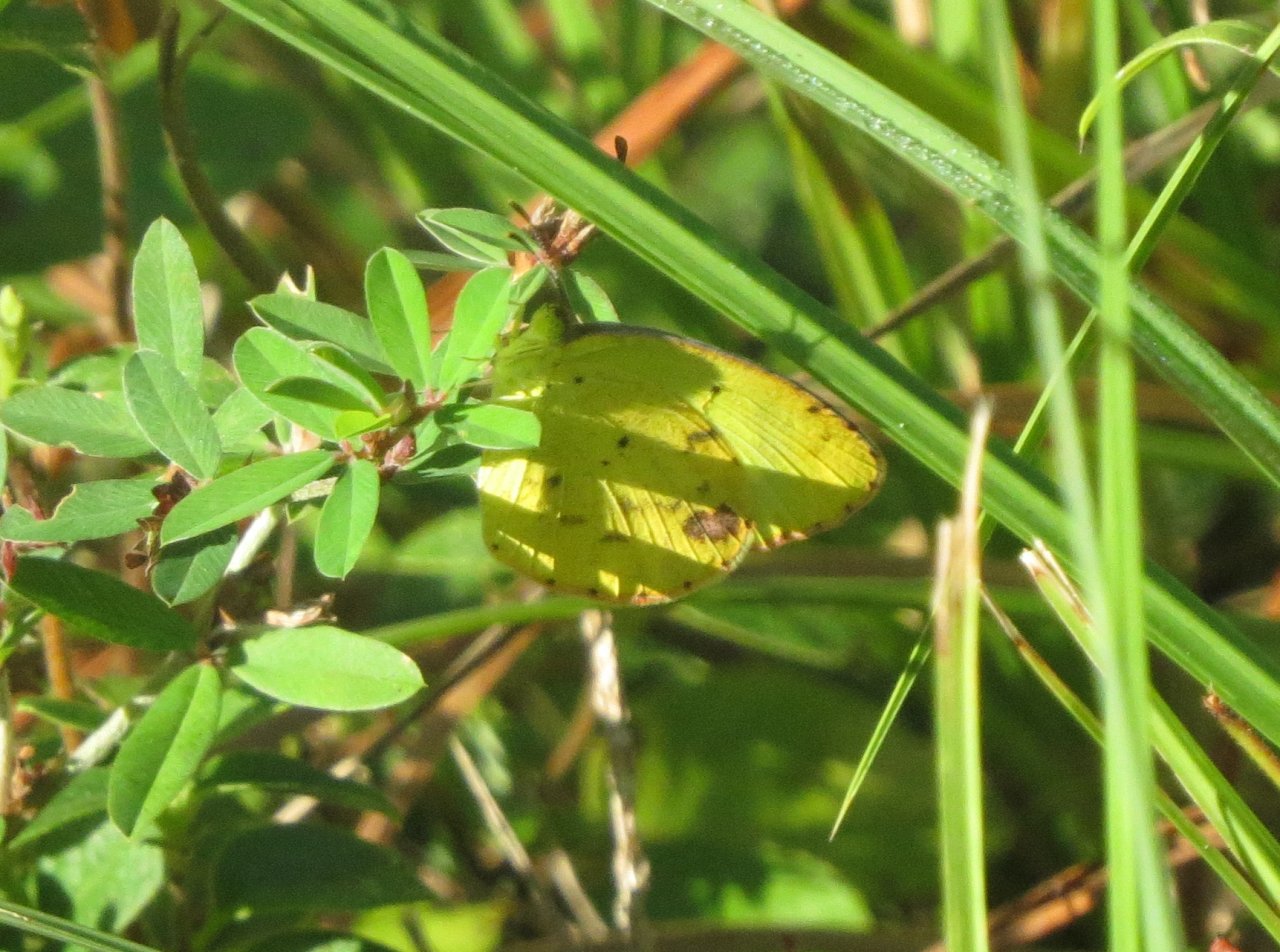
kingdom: Animalia
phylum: Arthropoda
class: Insecta
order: Lepidoptera
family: Pieridae
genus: Pyrisitia
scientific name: Pyrisitia lisa
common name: Little Yellow
